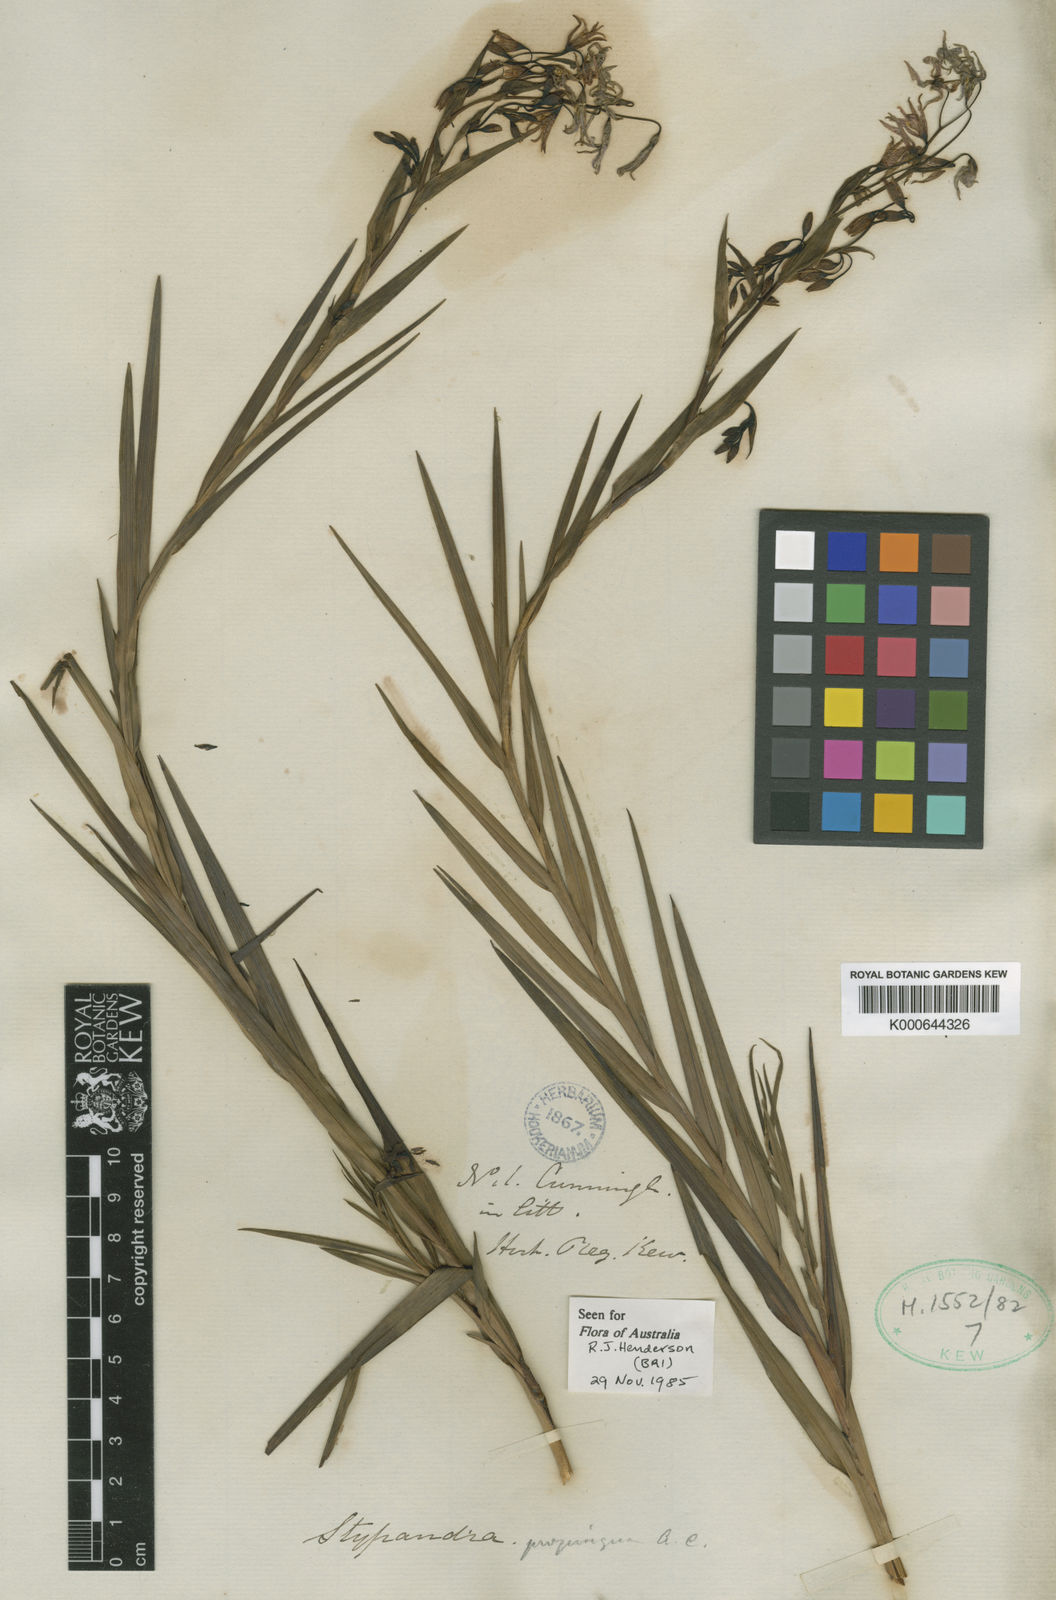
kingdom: Plantae
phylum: Tracheophyta
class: Liliopsida
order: Asparagales
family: Asphodelaceae
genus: Stypandra
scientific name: Stypandra glauca
